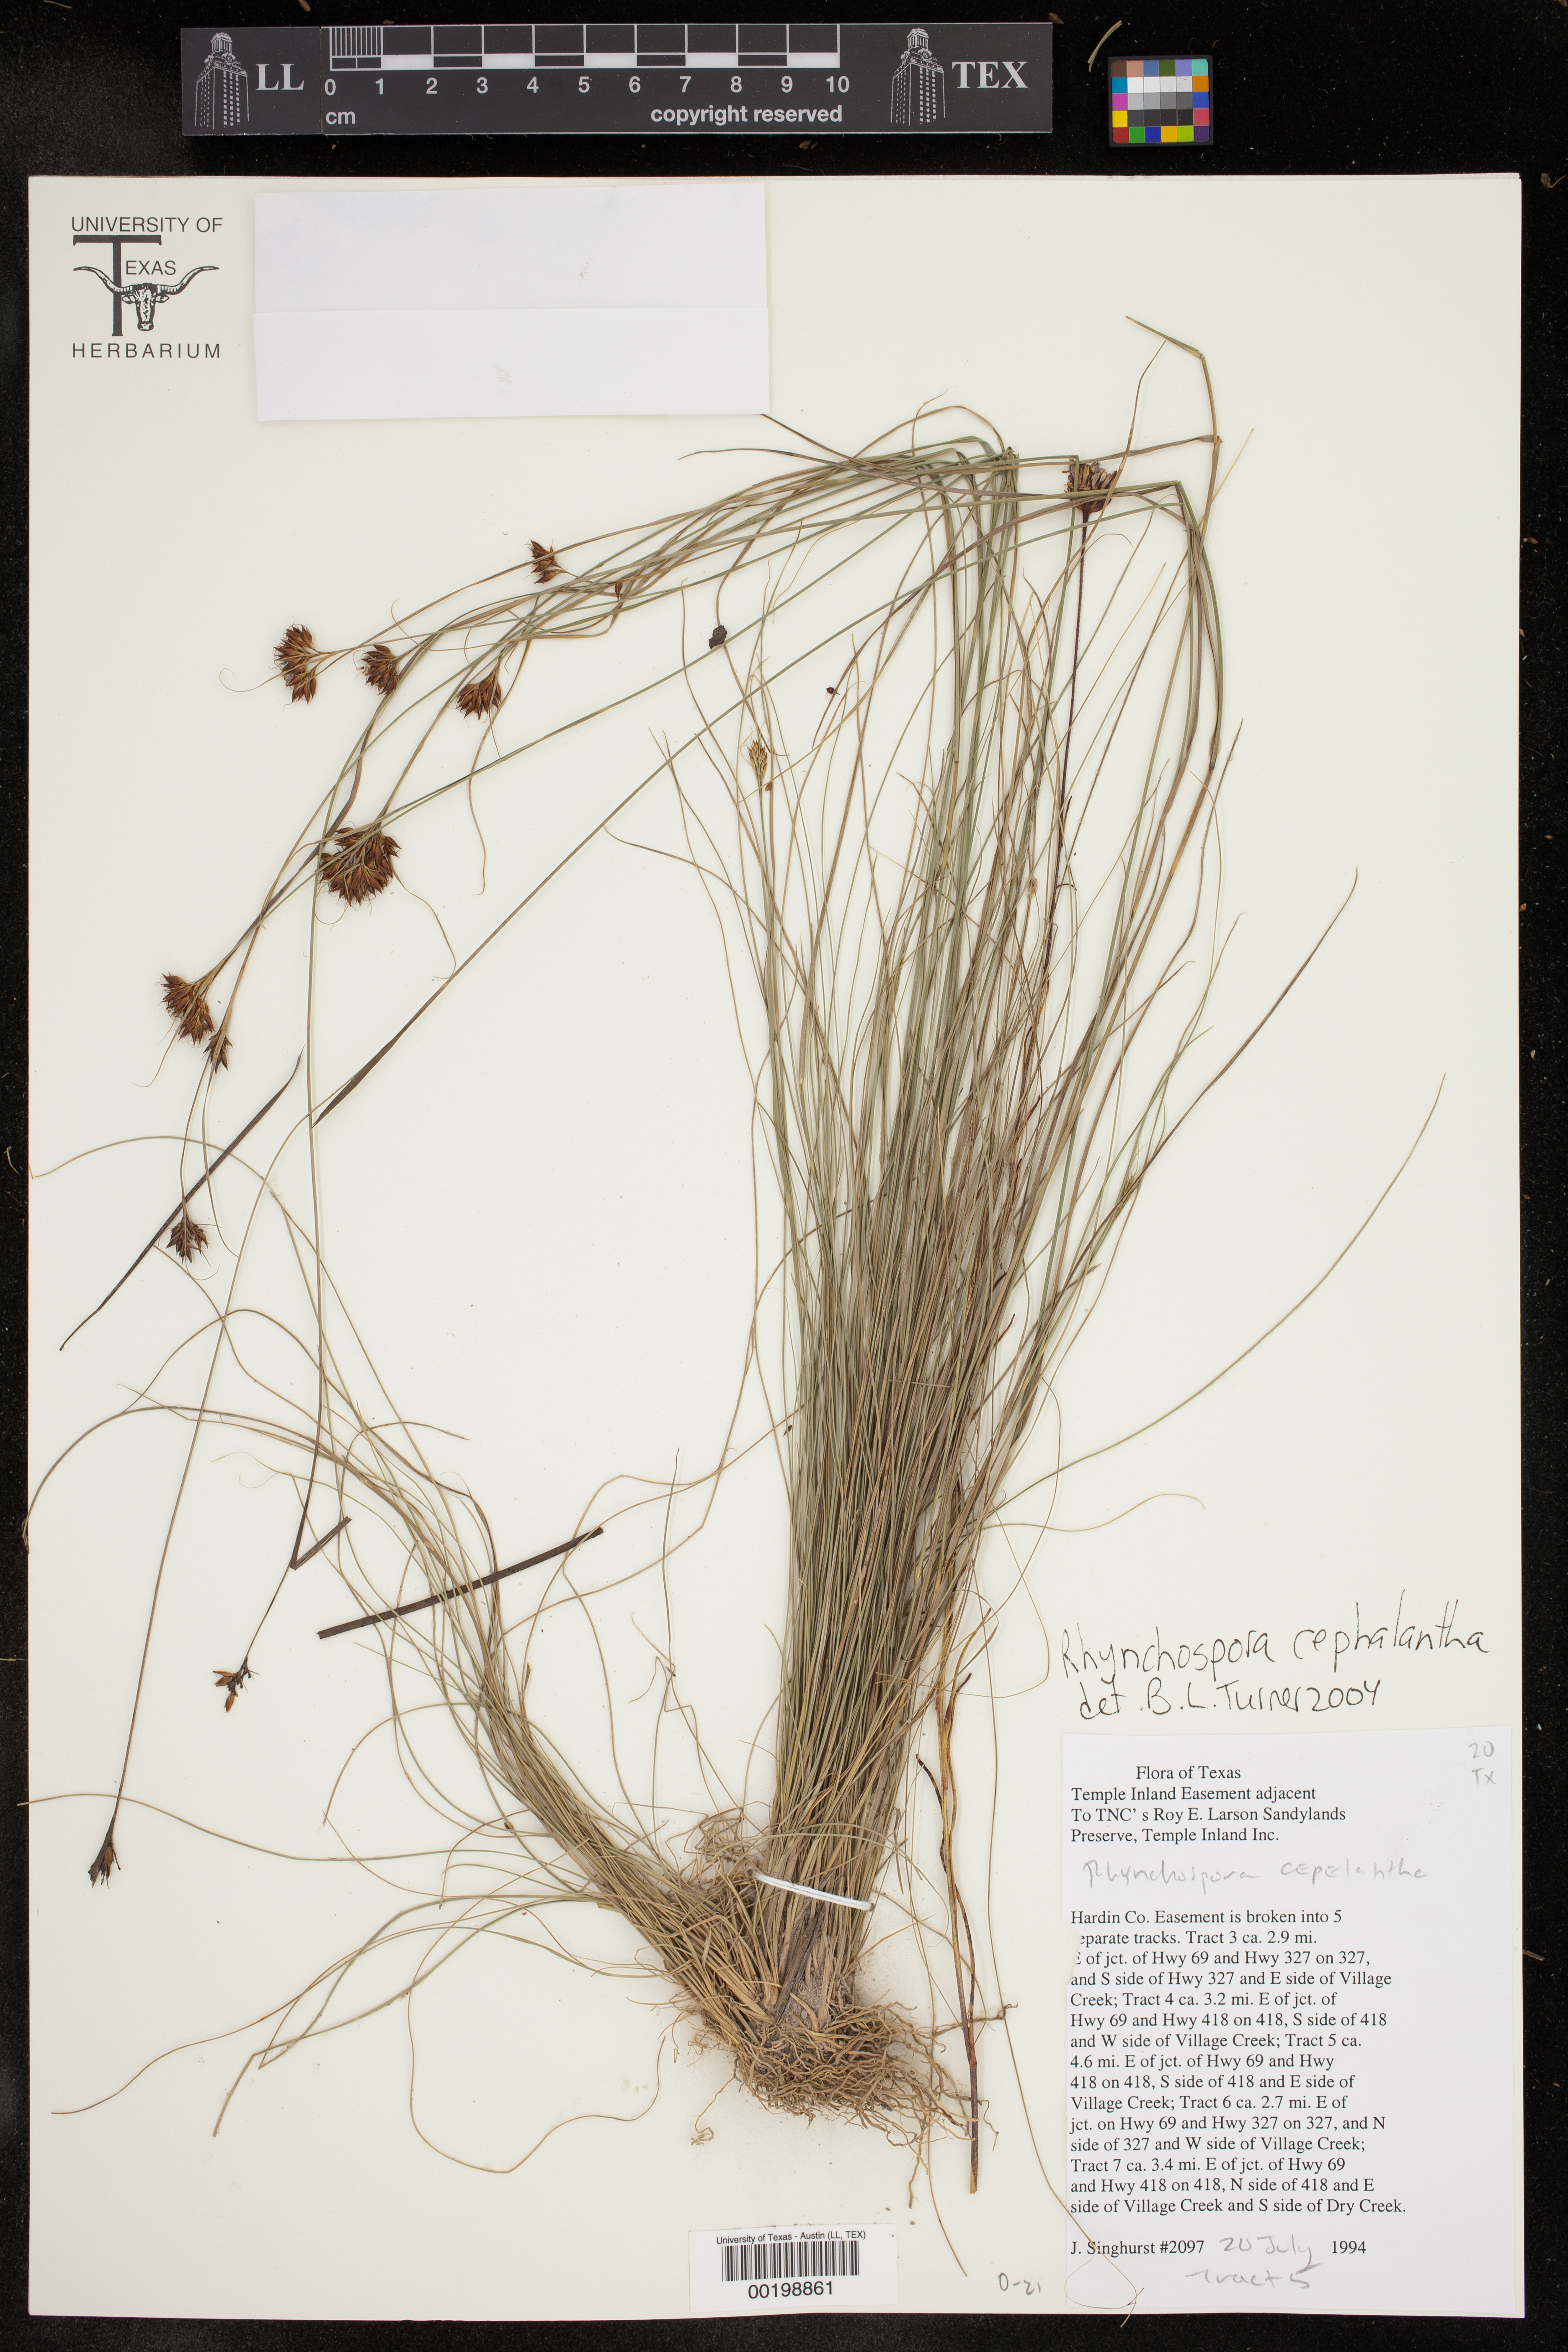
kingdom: Plantae
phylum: Tracheophyta
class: Liliopsida
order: Poales
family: Cyperaceae
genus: Rhynchospora
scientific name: Rhynchospora cephalantha
